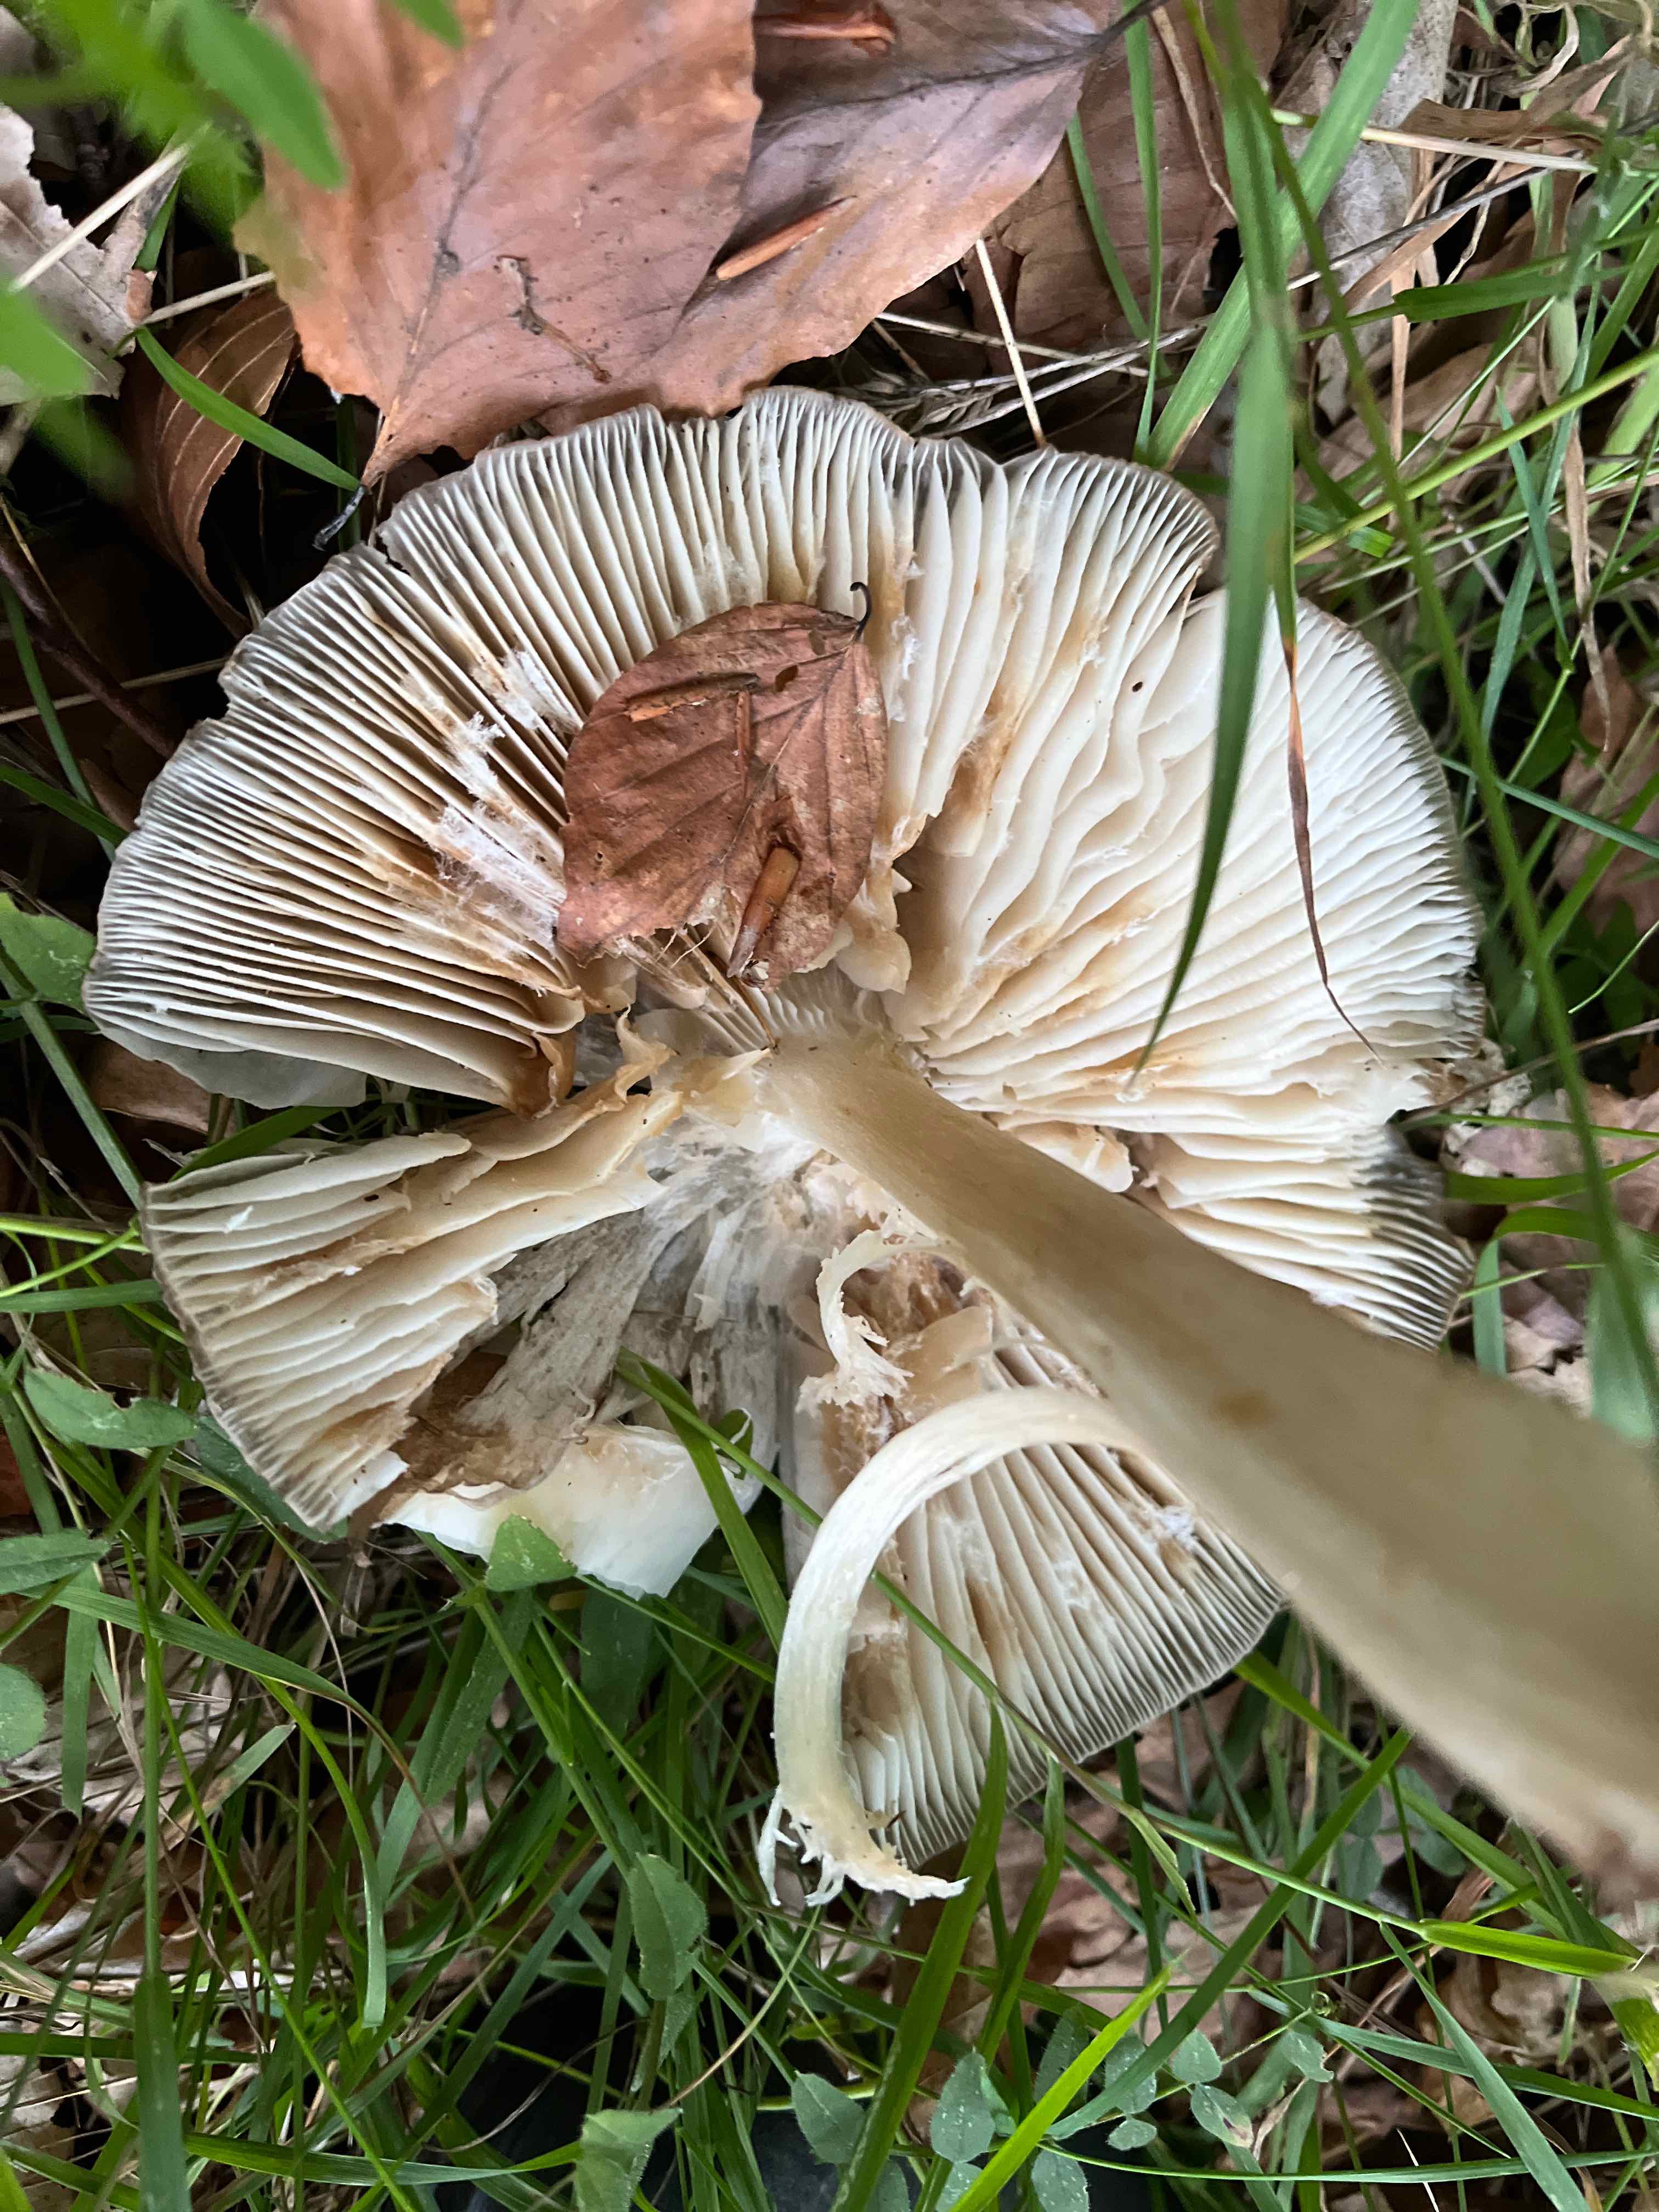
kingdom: Fungi
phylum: Basidiomycota
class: Agaricomycetes
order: Agaricales
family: Tricholomataceae
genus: Megacollybia
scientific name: Megacollybia platyphylla
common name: bredbladet væbnerhat
